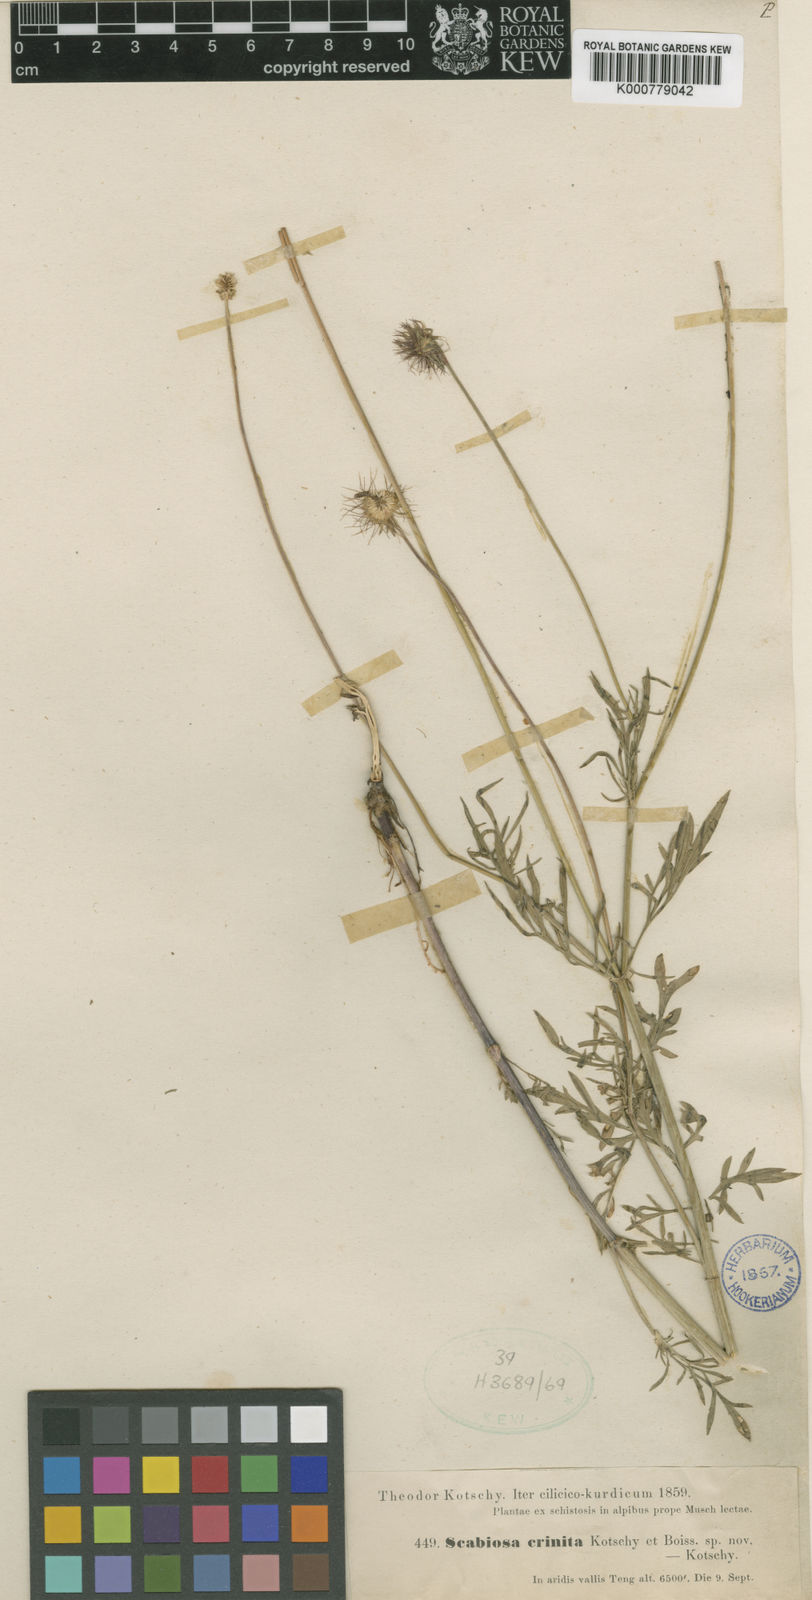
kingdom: Plantae
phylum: Tracheophyta
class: Magnoliopsida
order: Dipsacales
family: Caprifoliaceae
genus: Scabiosa
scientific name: Scabiosa crinita
